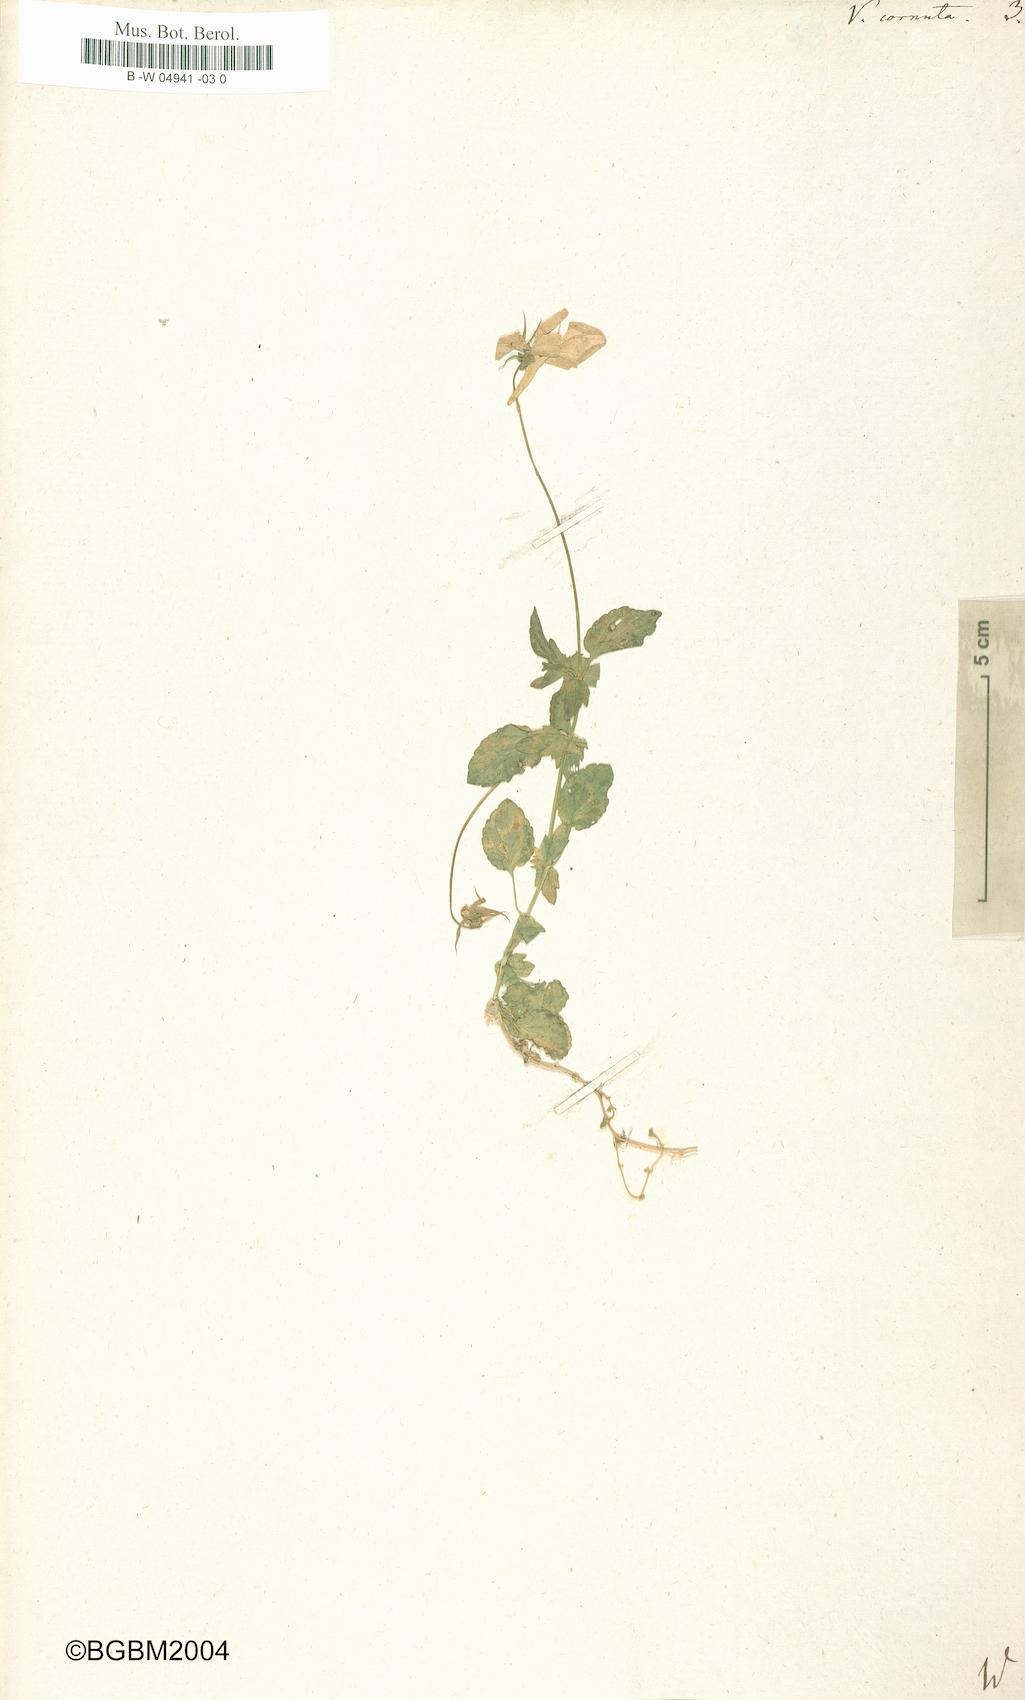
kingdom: Plantae
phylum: Tracheophyta
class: Magnoliopsida
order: Malpighiales
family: Violaceae
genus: Viola
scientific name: Viola cornuta
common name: Horned pansy
